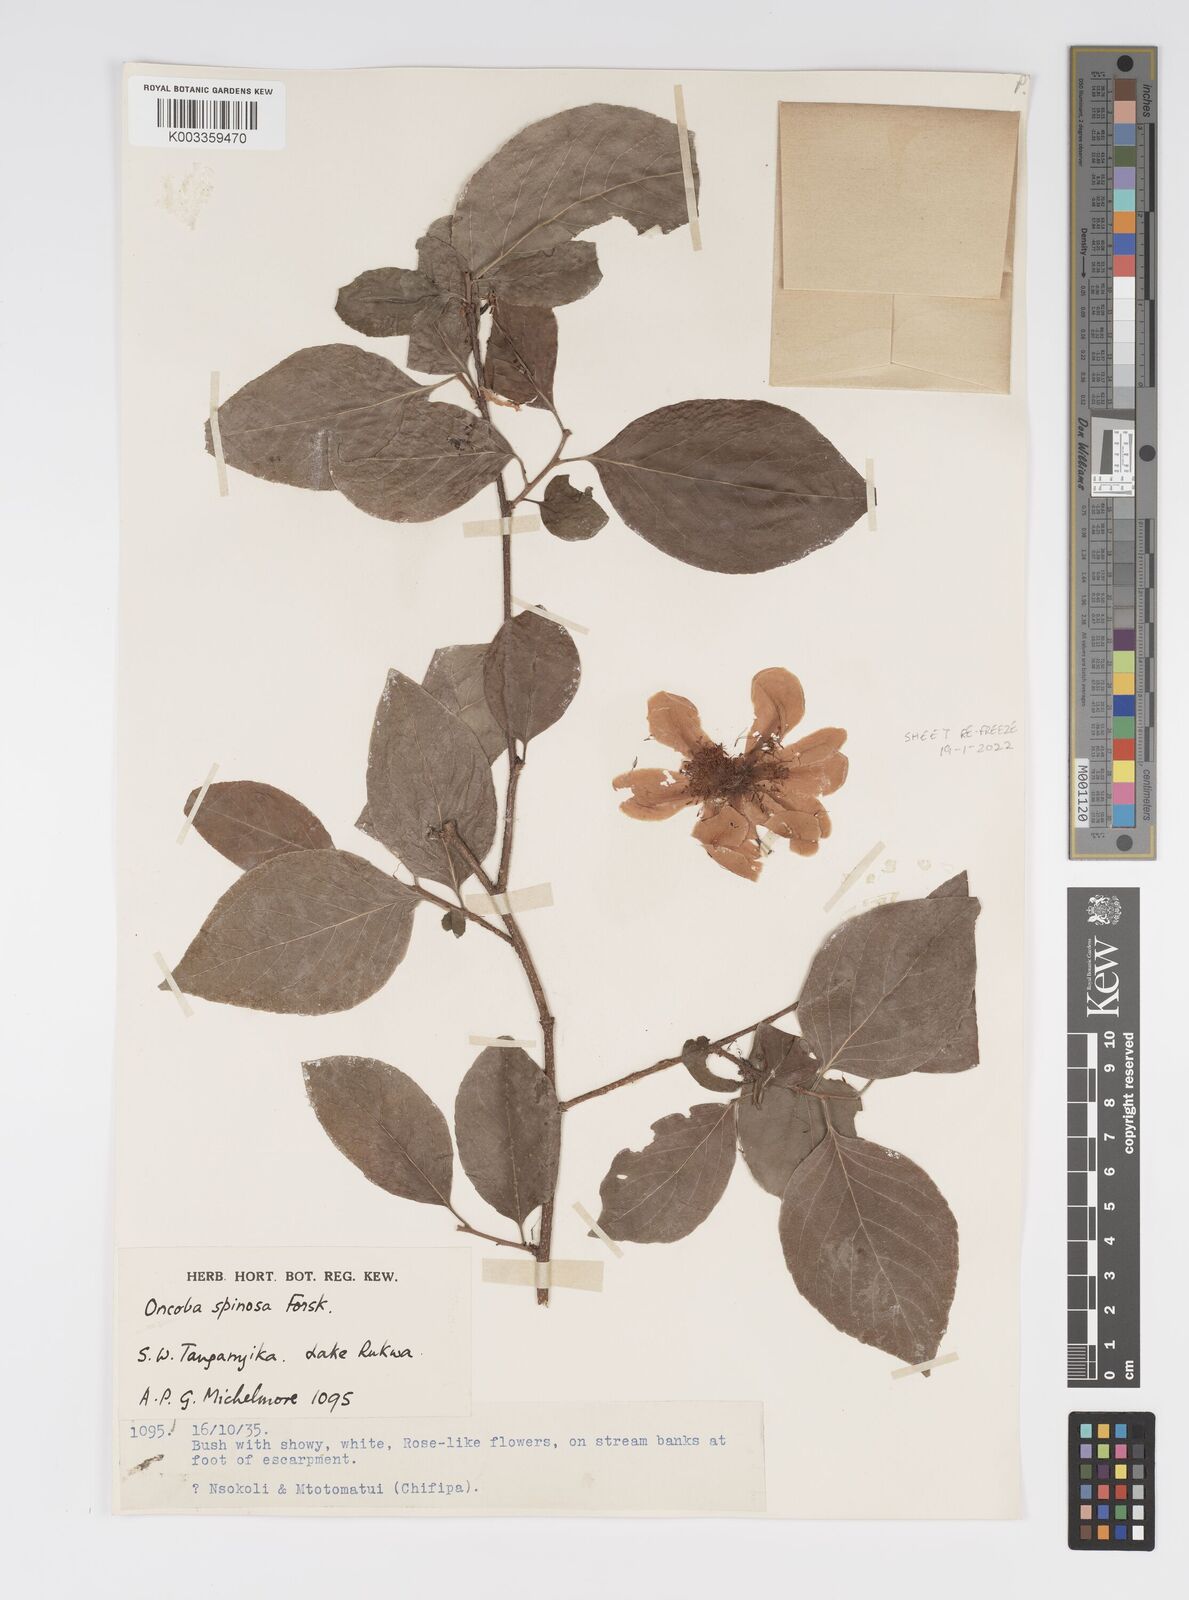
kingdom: Plantae
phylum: Tracheophyta
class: Magnoliopsida
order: Malpighiales
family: Salicaceae
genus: Oncoba
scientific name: Oncoba spinosa
